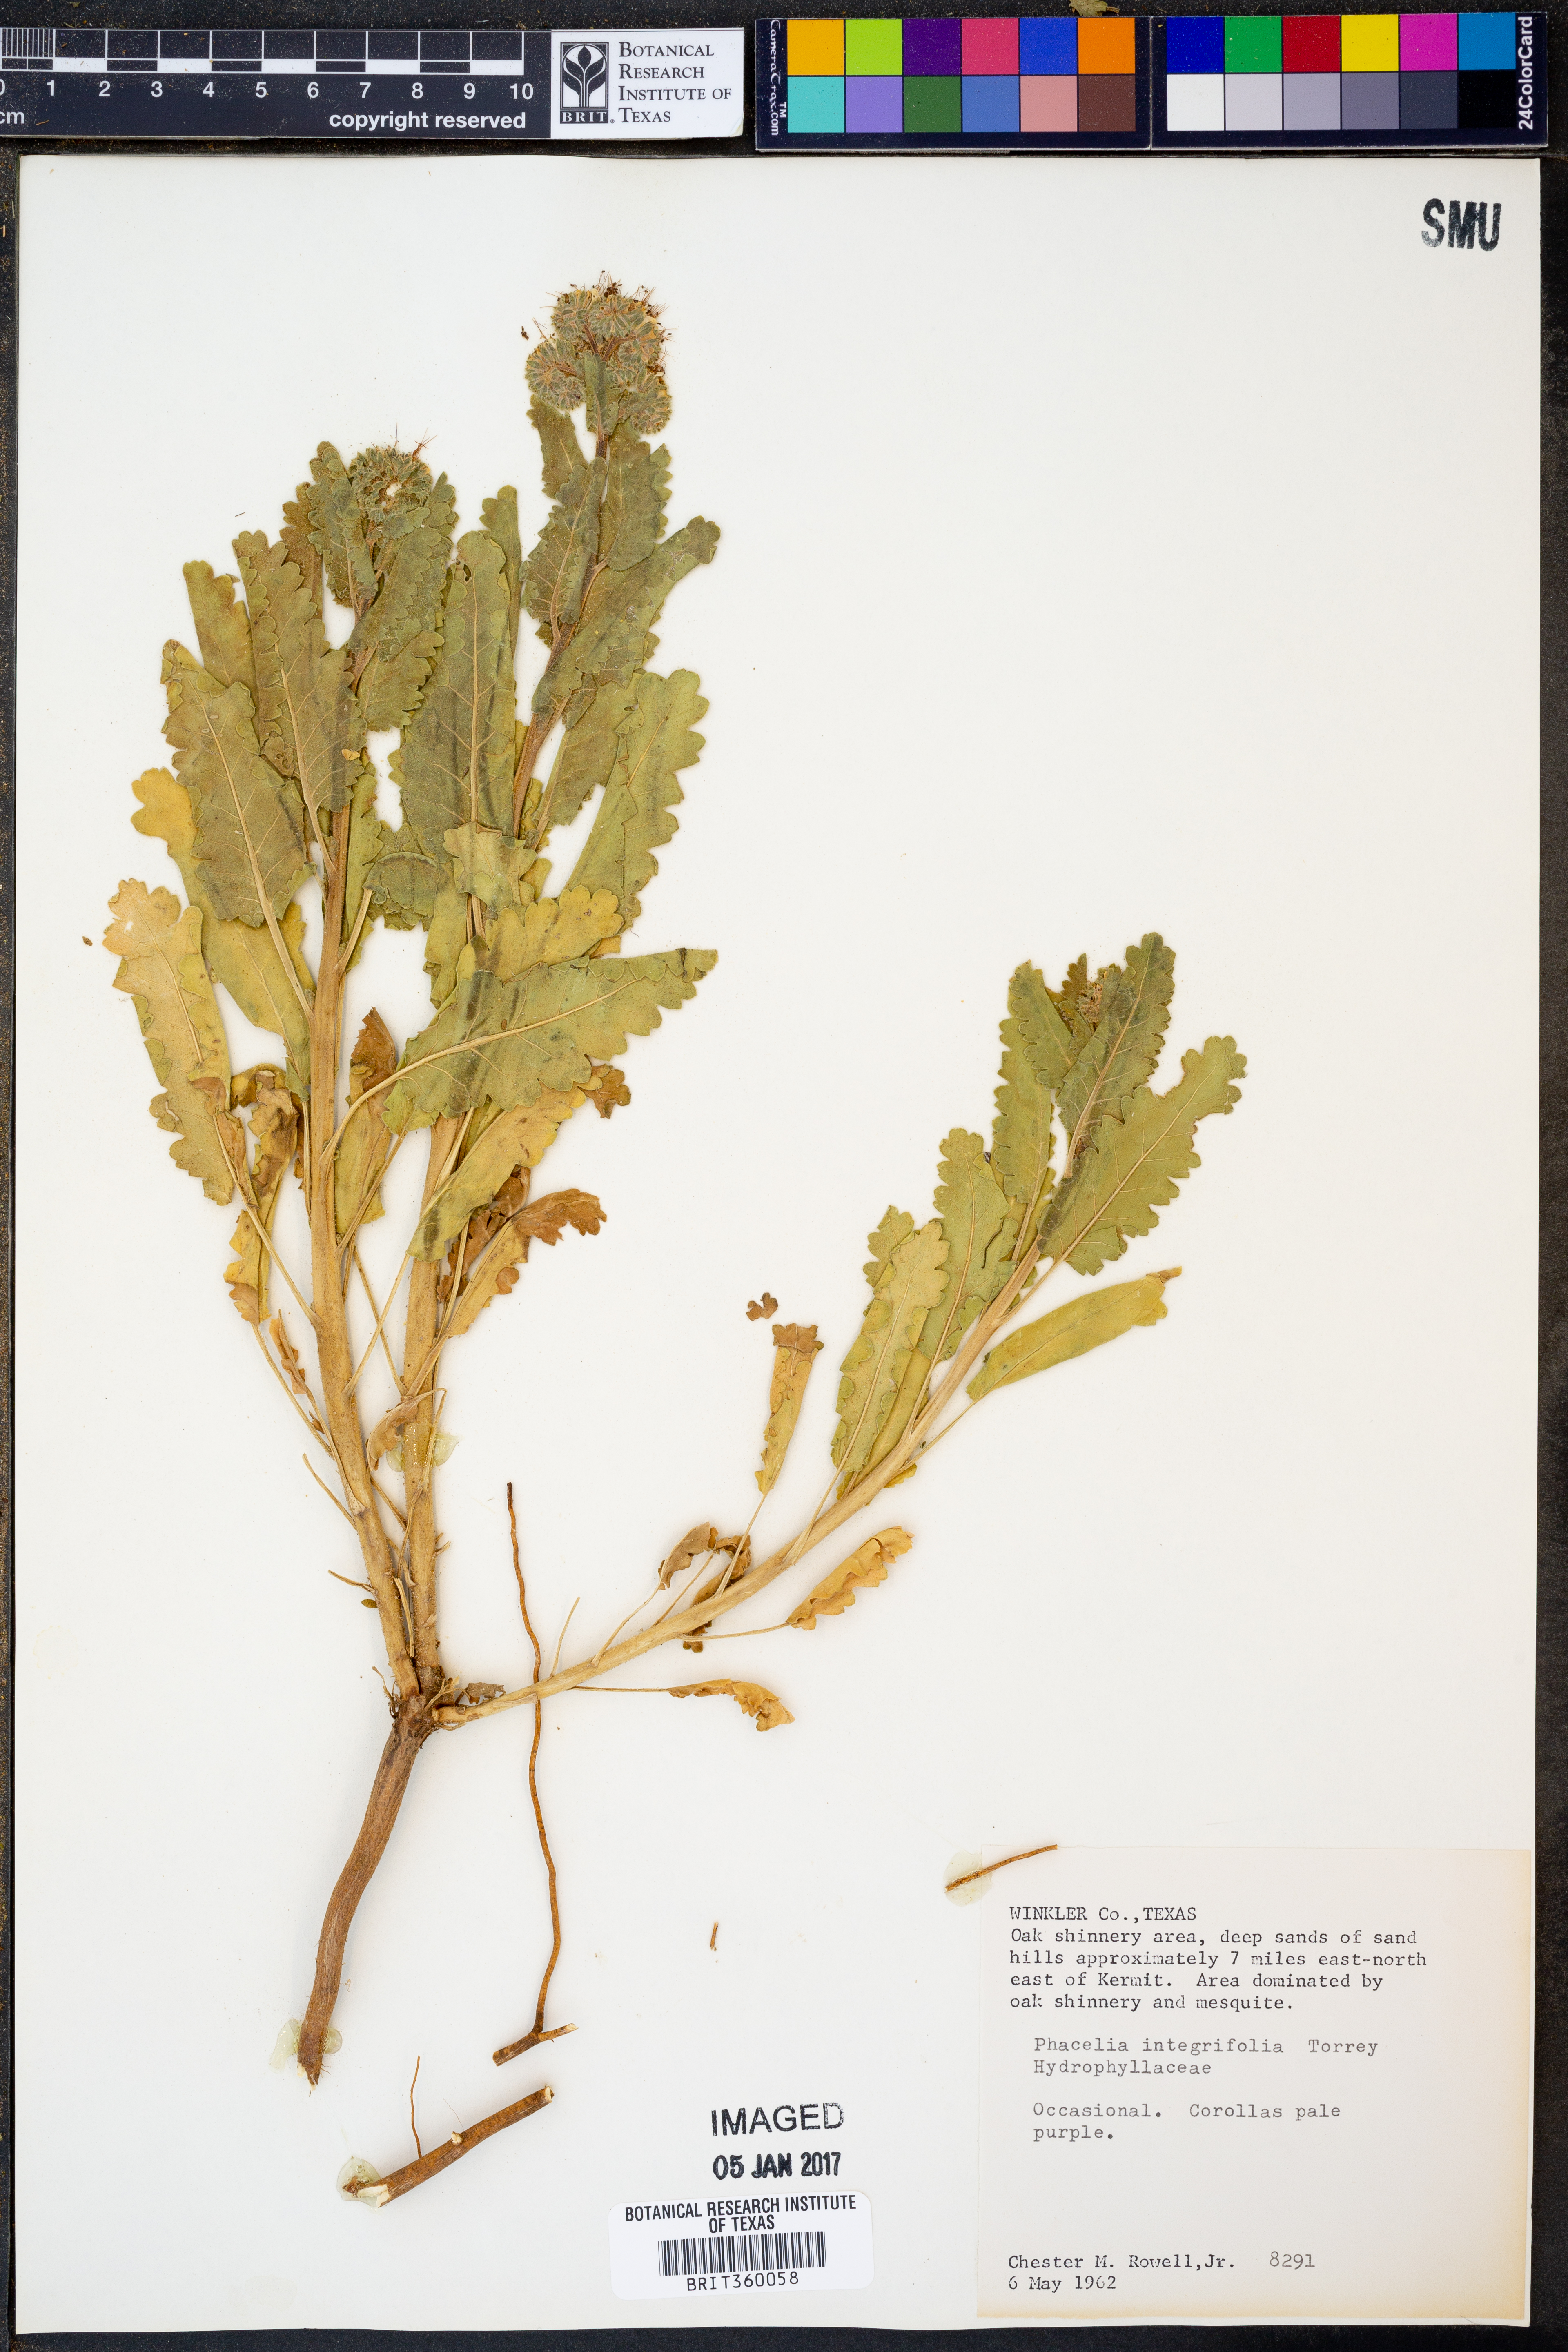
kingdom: Plantae
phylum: Tracheophyta
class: Magnoliopsida
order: Boraginales
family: Hydrophyllaceae
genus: Phacelia
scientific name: Phacelia integrifolia
